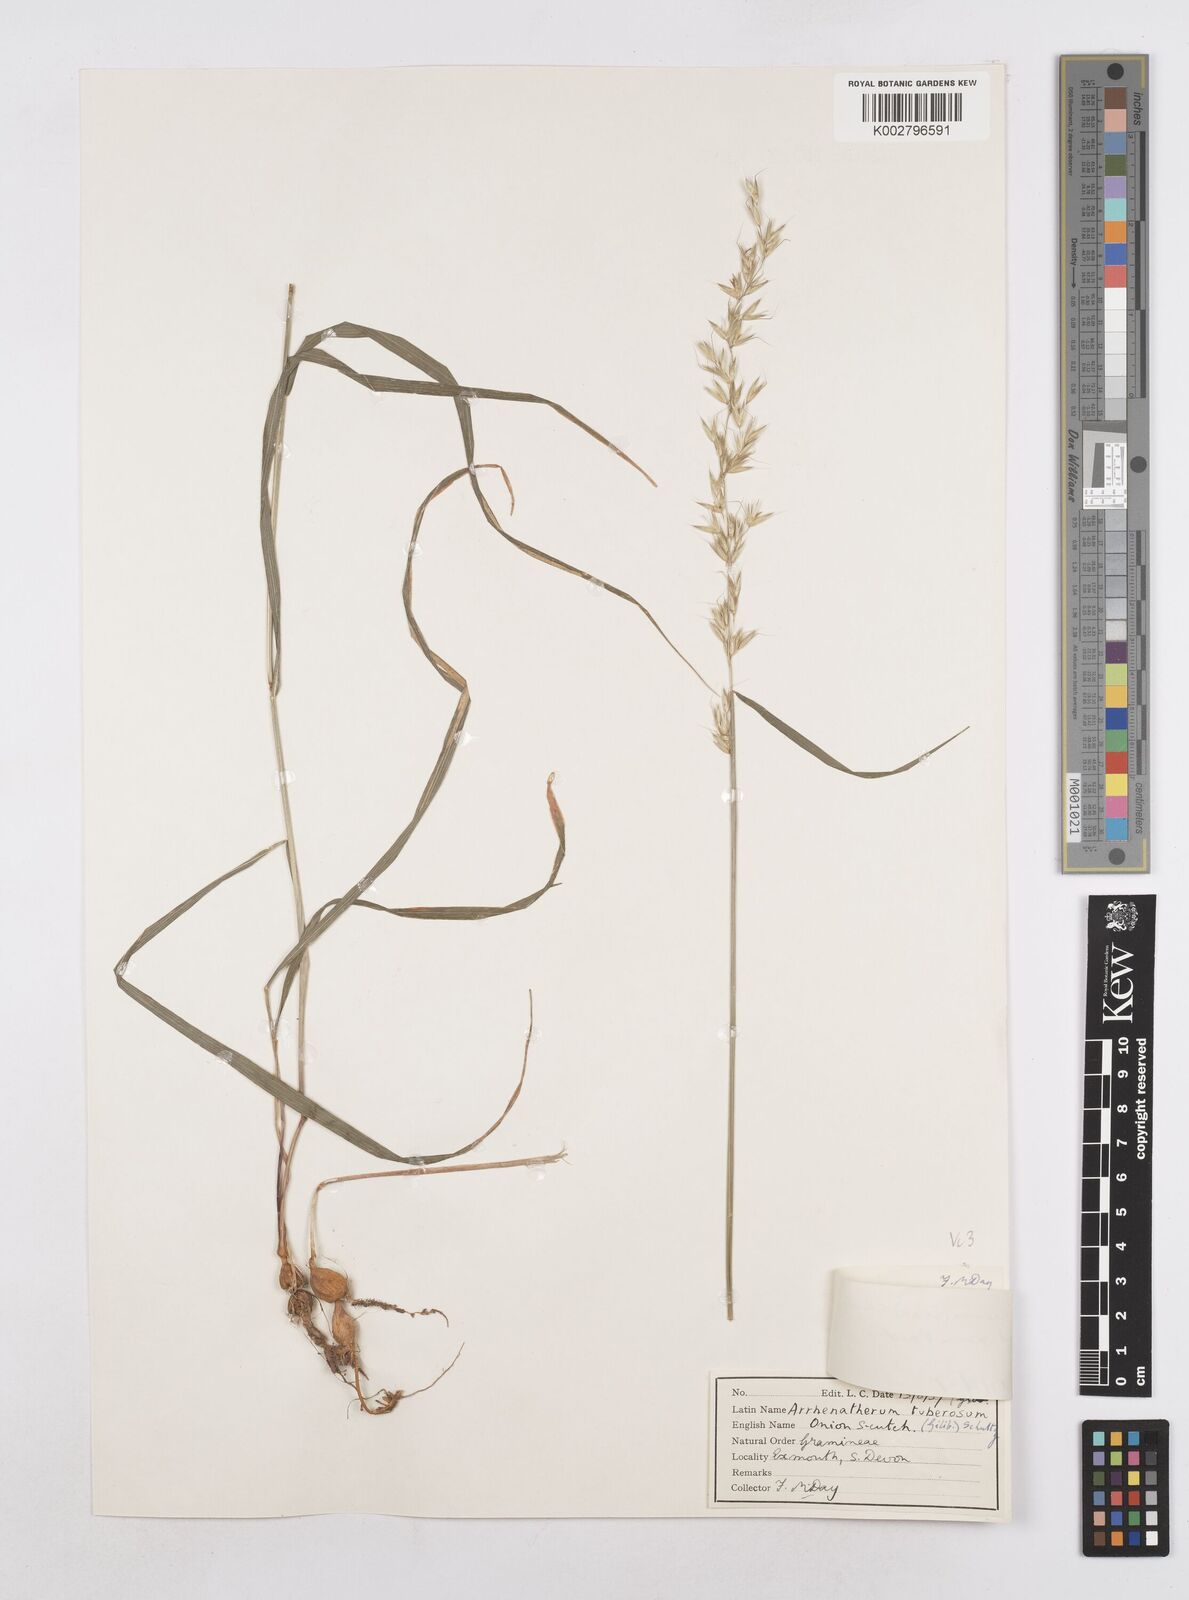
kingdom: Plantae
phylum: Tracheophyta
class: Liliopsida
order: Poales
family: Poaceae
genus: Arrhenatherum
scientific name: Arrhenatherum elatius
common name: Tall oatgrass
